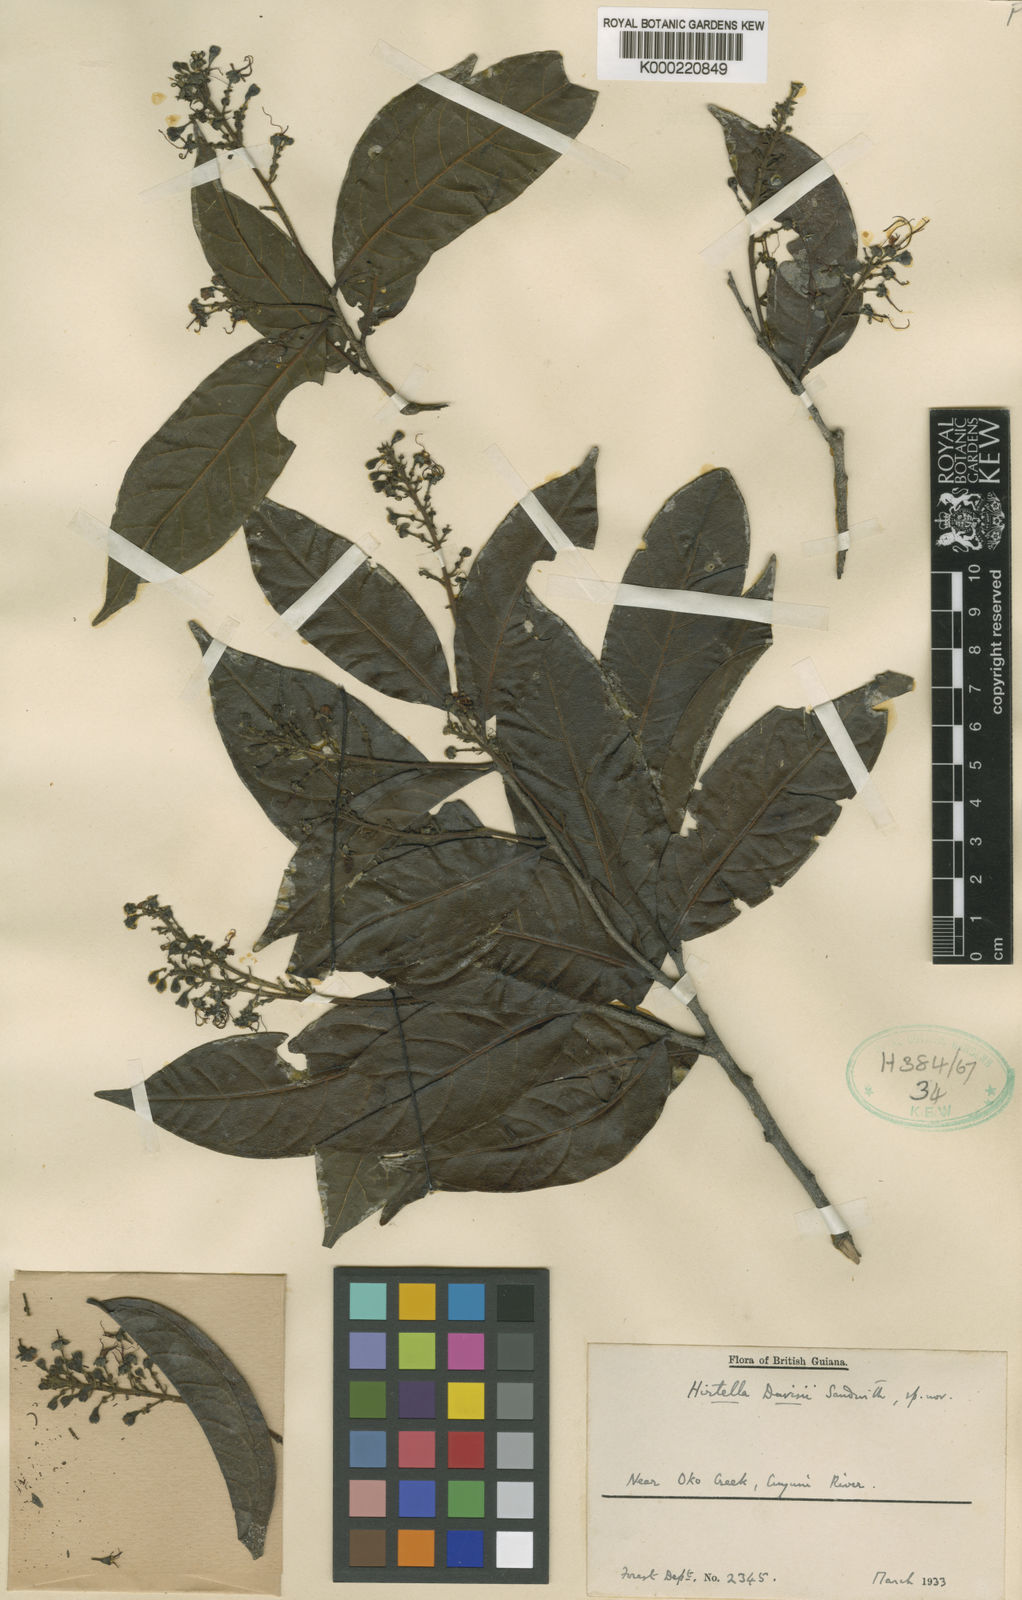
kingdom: Plantae
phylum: Tracheophyta
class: Magnoliopsida
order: Malpighiales
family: Chrysobalanaceae
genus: Hirtella
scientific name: Hirtella davisii
